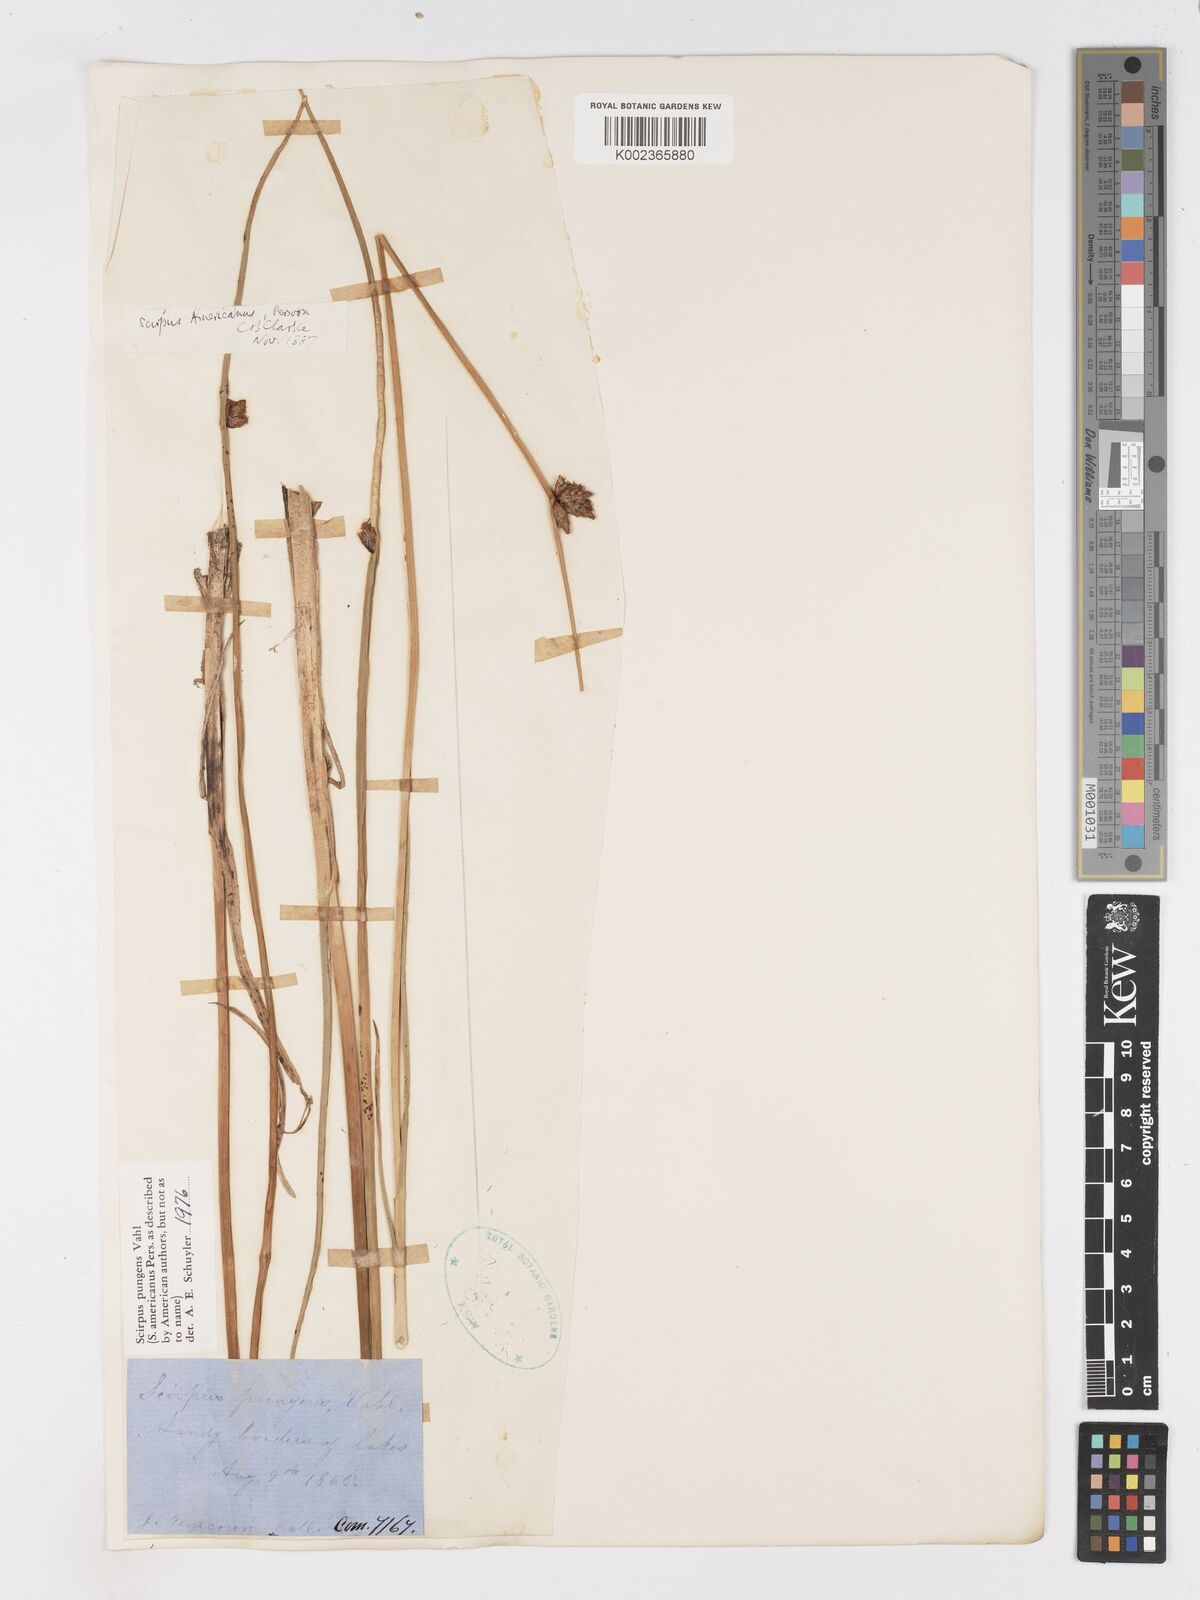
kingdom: Plantae
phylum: Tracheophyta
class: Liliopsida
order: Poales
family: Cyperaceae
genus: Schoenoplectus
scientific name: Schoenoplectus pungens
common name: Sharp club-rush
